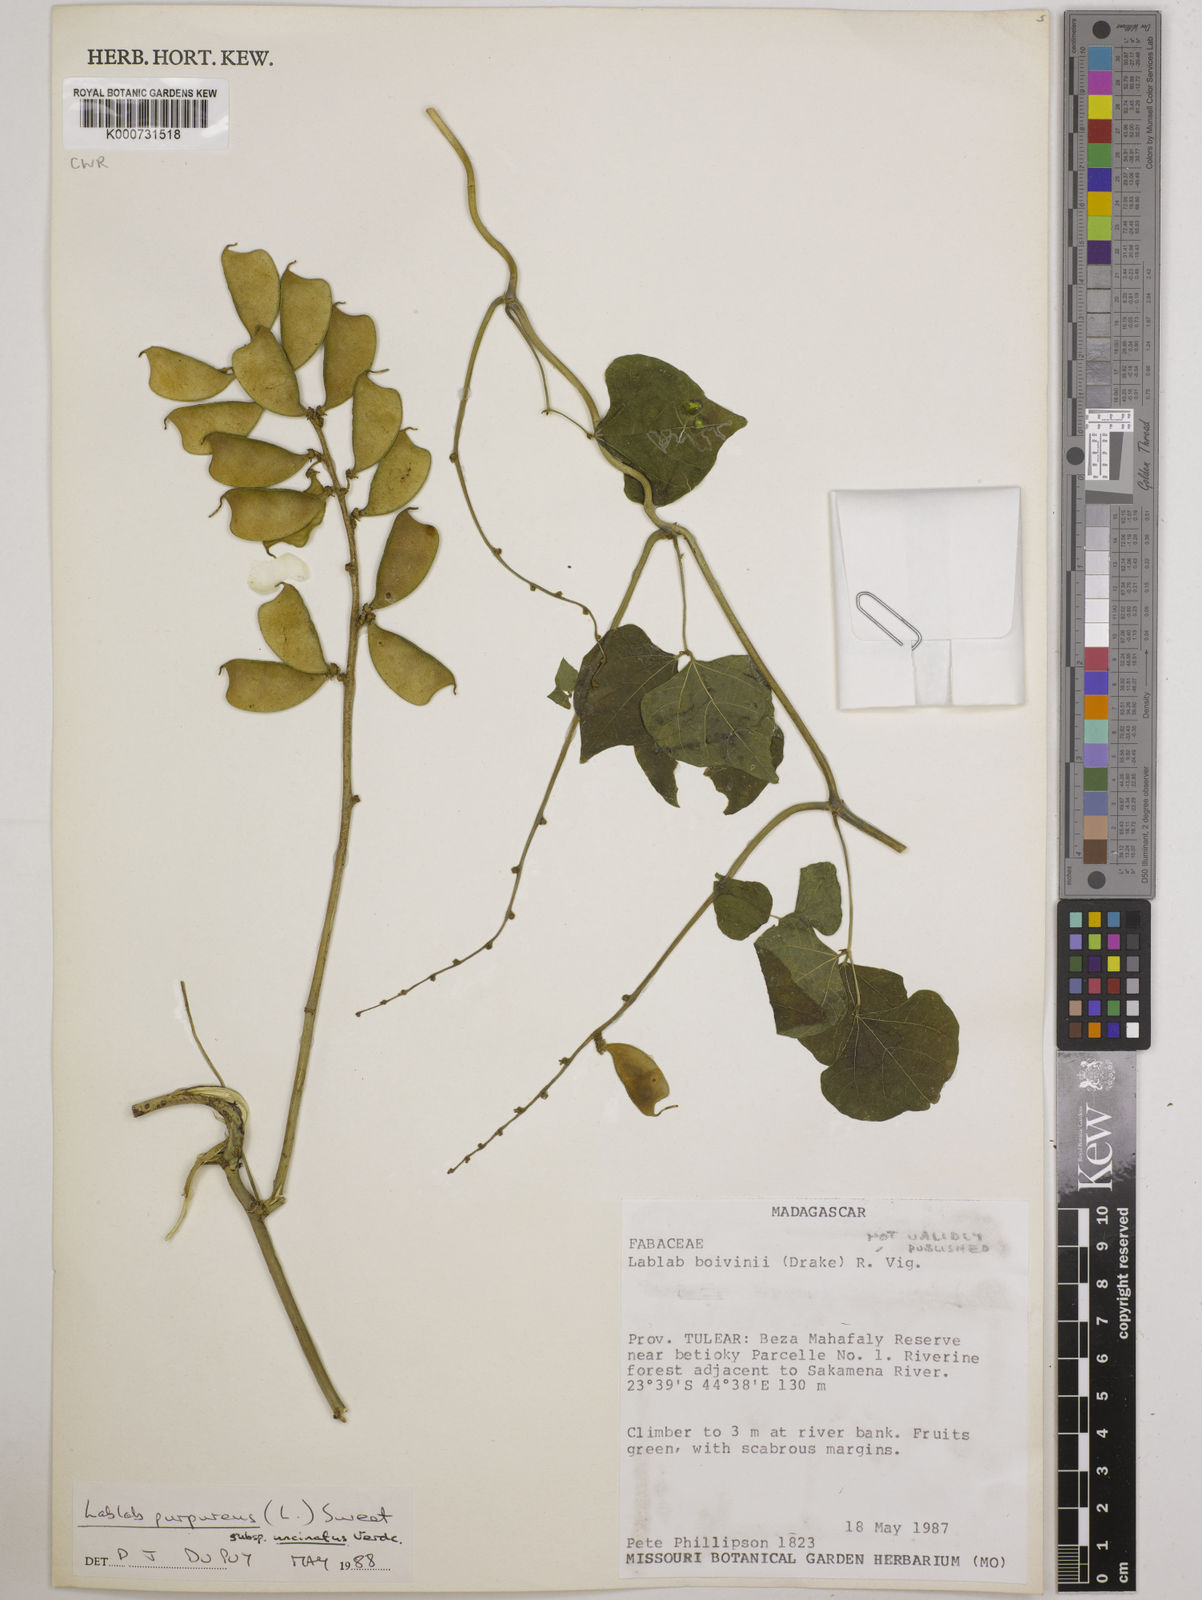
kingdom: Plantae
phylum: Tracheophyta
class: Magnoliopsida
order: Fabales
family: Fabaceae
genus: Lablab
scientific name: Lablab purpureus
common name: Lablab-bean
